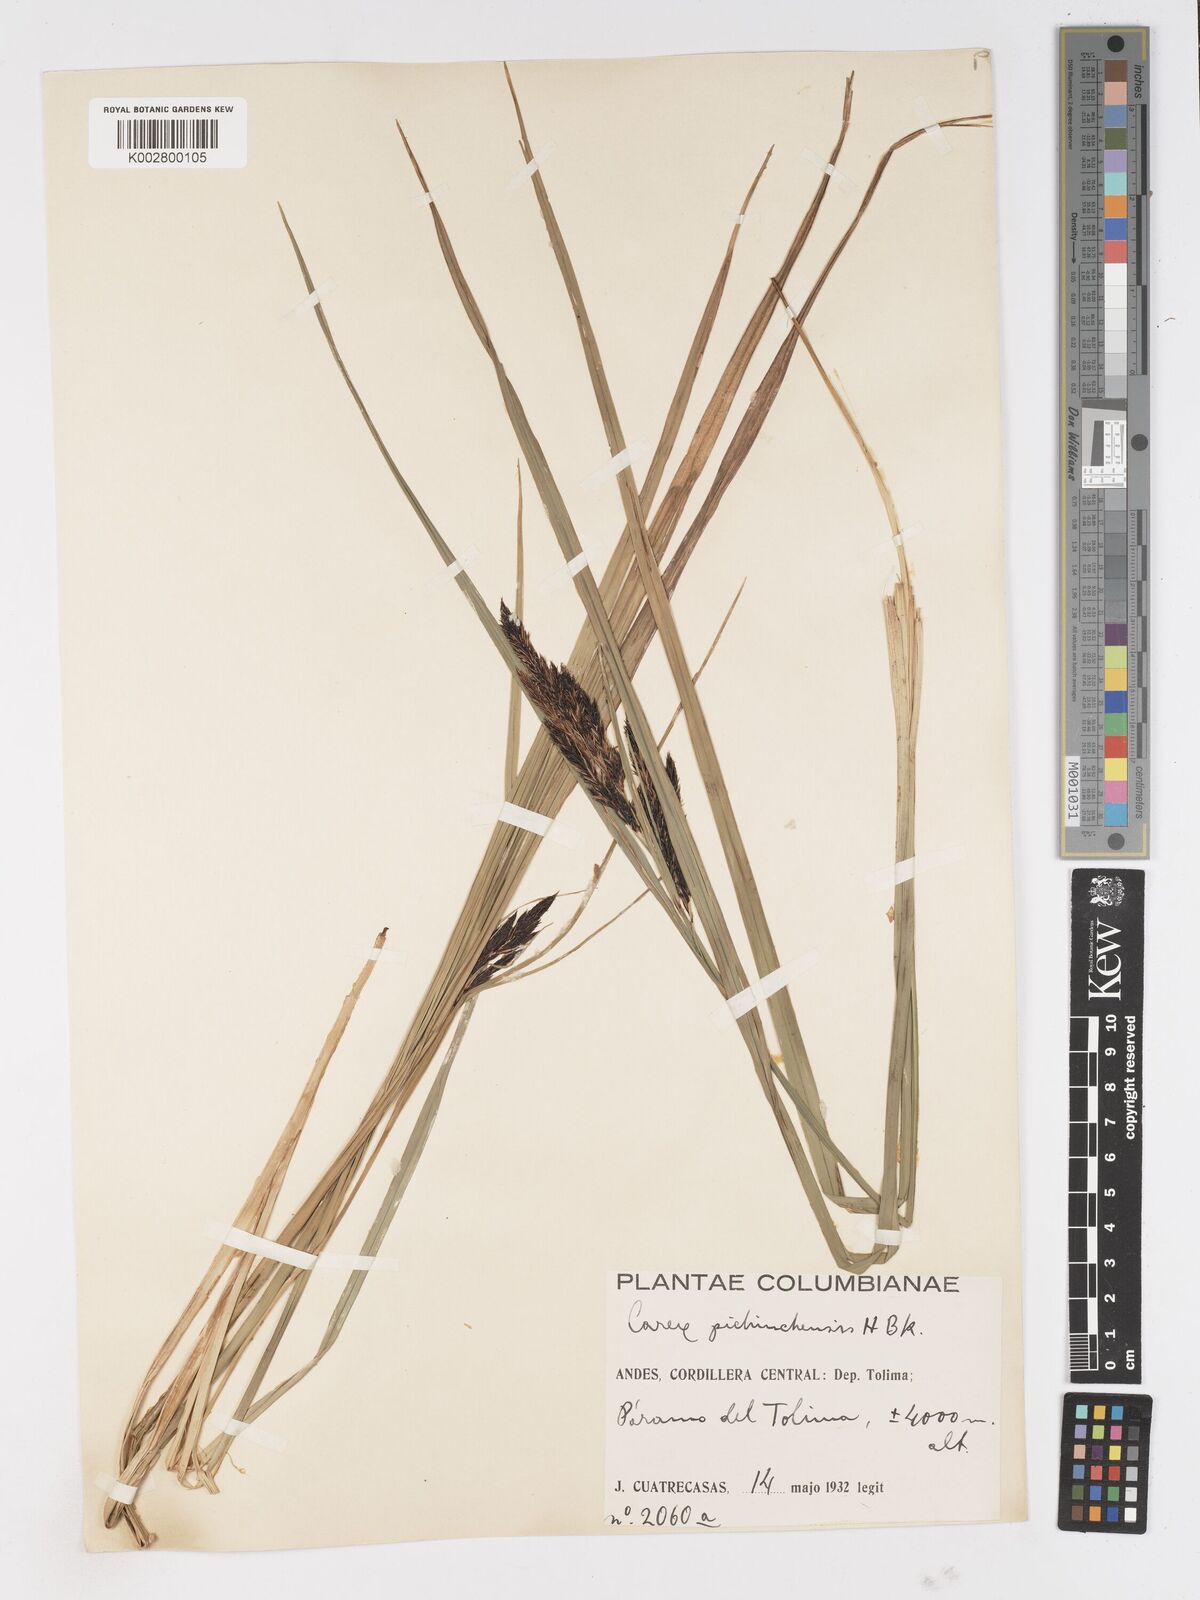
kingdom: Plantae
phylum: Tracheophyta
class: Liliopsida
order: Poales
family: Cyperaceae
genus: Carex
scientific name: Carex pichinchensis
